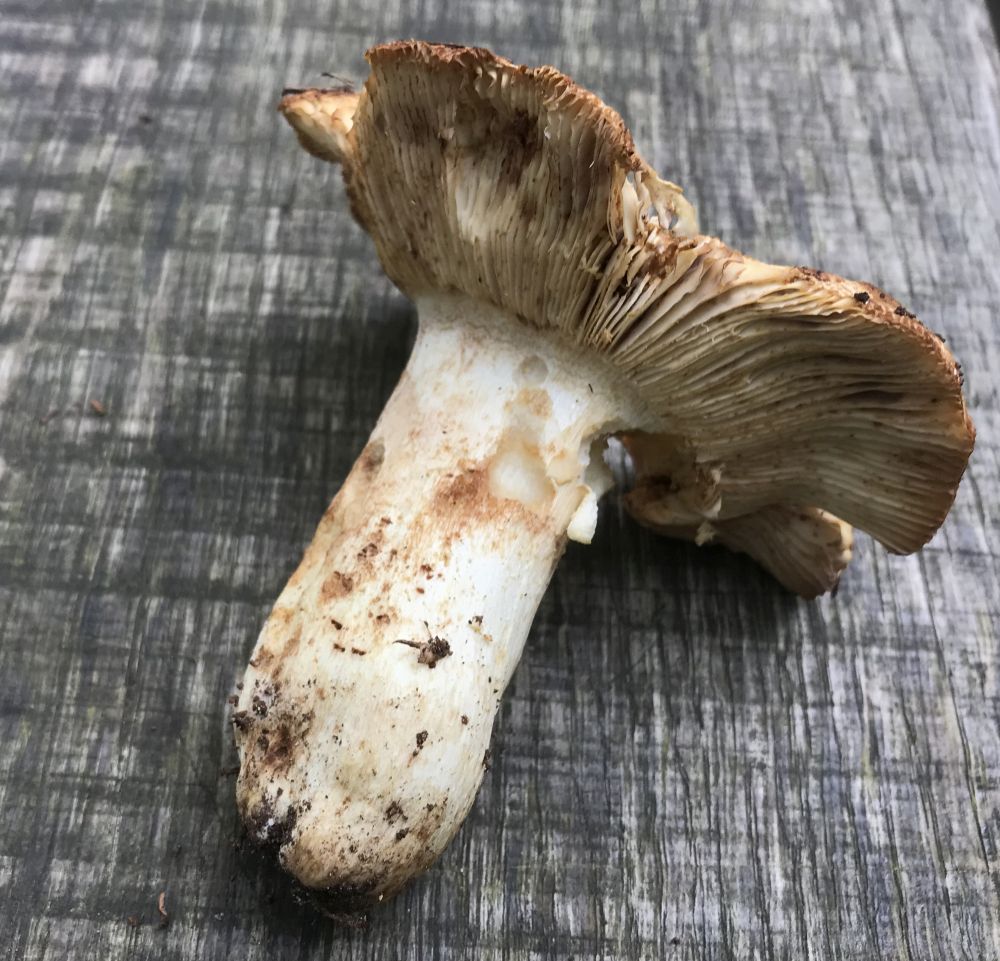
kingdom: Fungi
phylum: Basidiomycota
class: Agaricomycetes
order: Russulales
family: Russulaceae
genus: Russula
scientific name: Russula foetens
